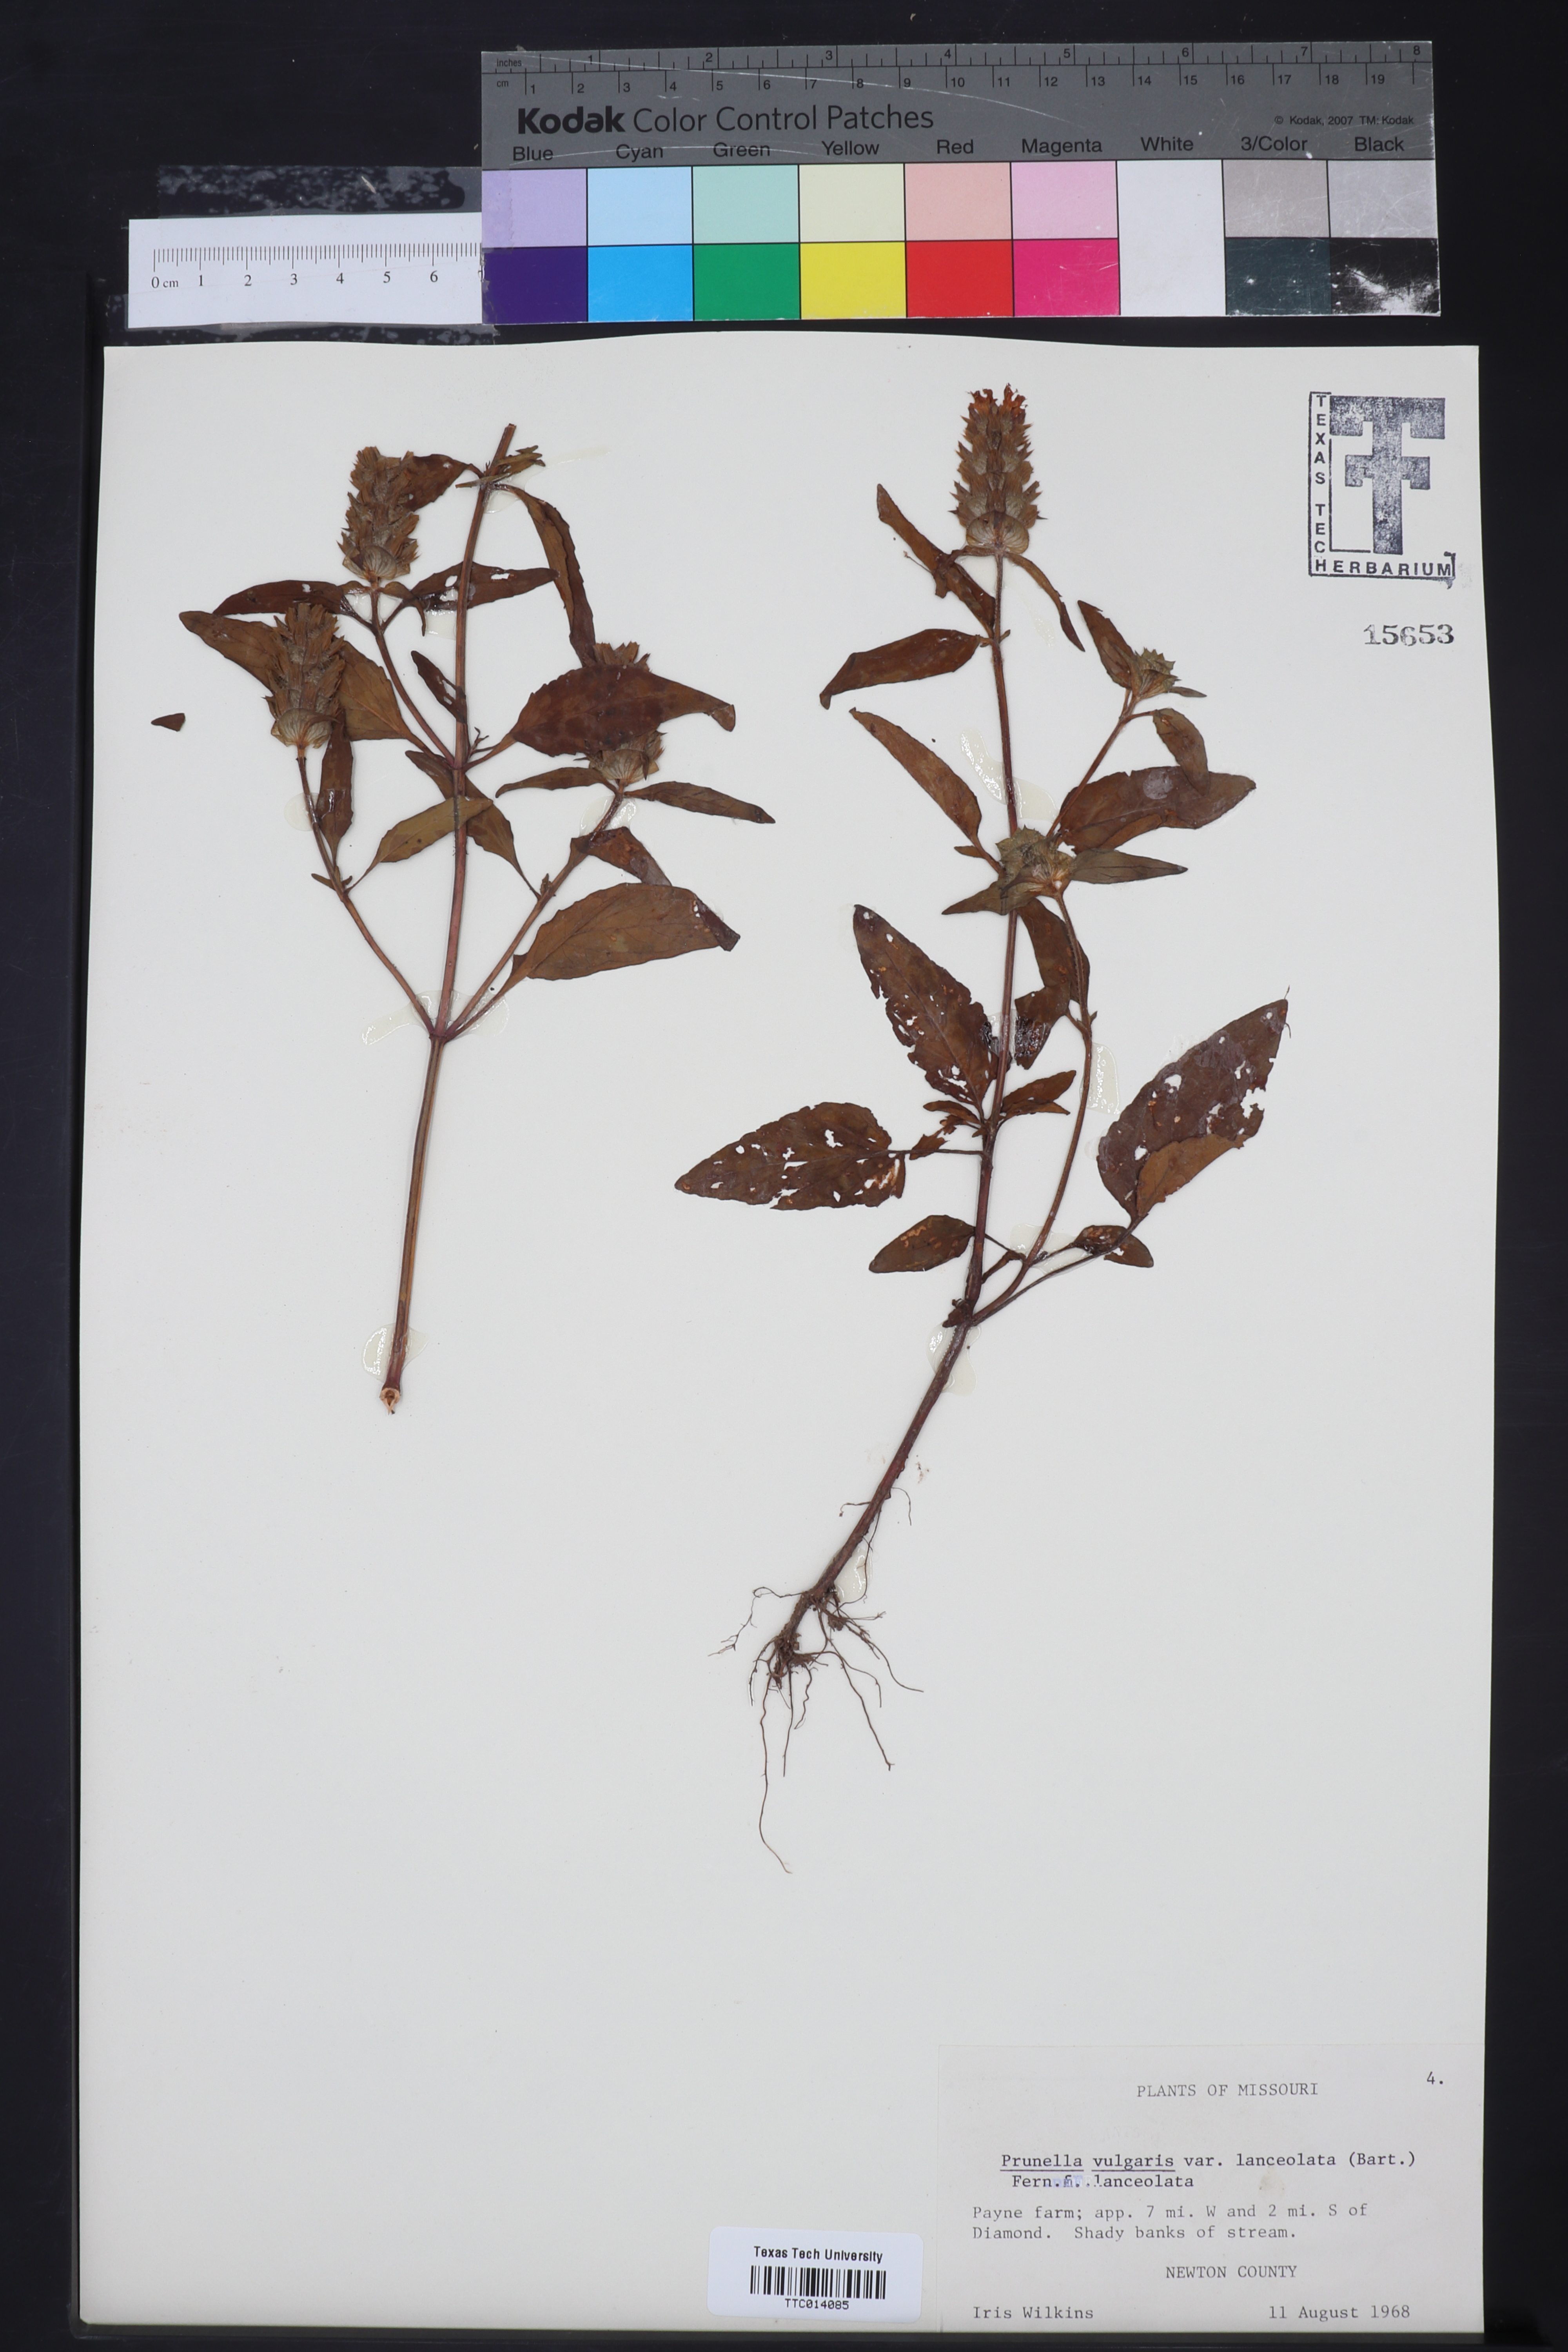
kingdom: Plantae
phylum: Tracheophyta
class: Magnoliopsida
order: Lamiales
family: Lamiaceae
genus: Prunella
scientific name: Prunella vulgaris
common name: Heal-all
